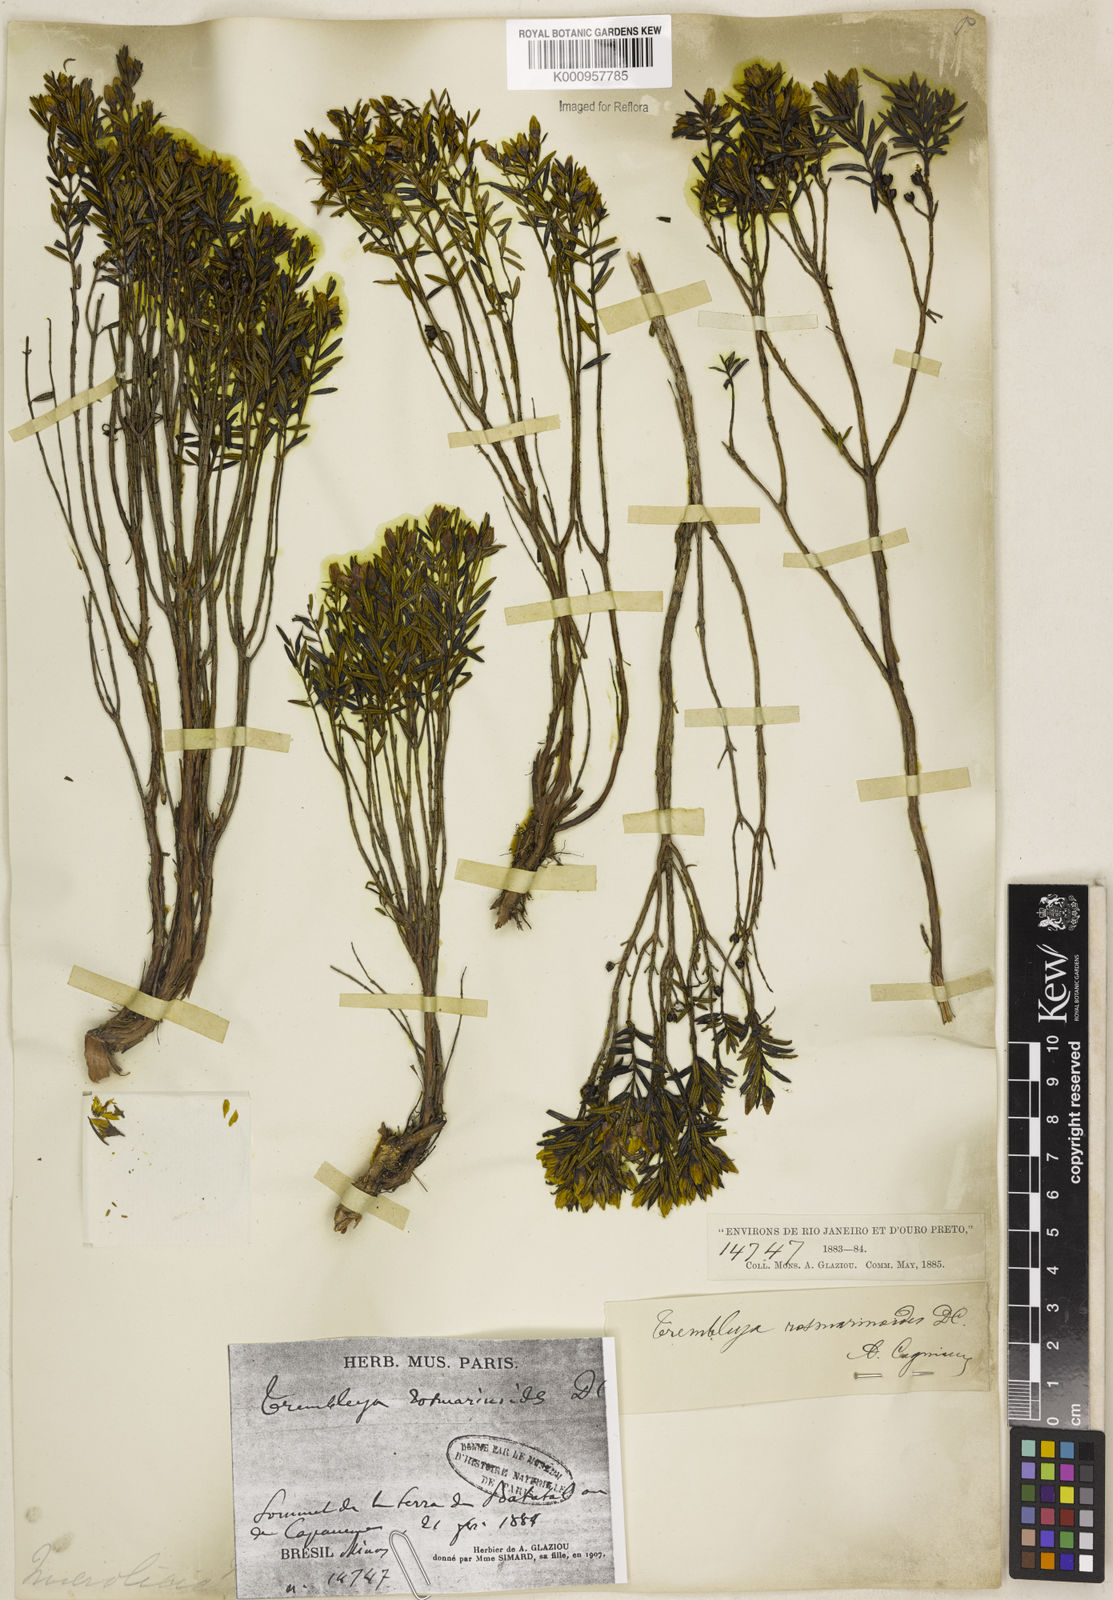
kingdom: Plantae
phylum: Tracheophyta
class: Magnoliopsida
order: Myrtales
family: Melastomataceae
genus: Microlicia
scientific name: Microlicia rosmarinoides
